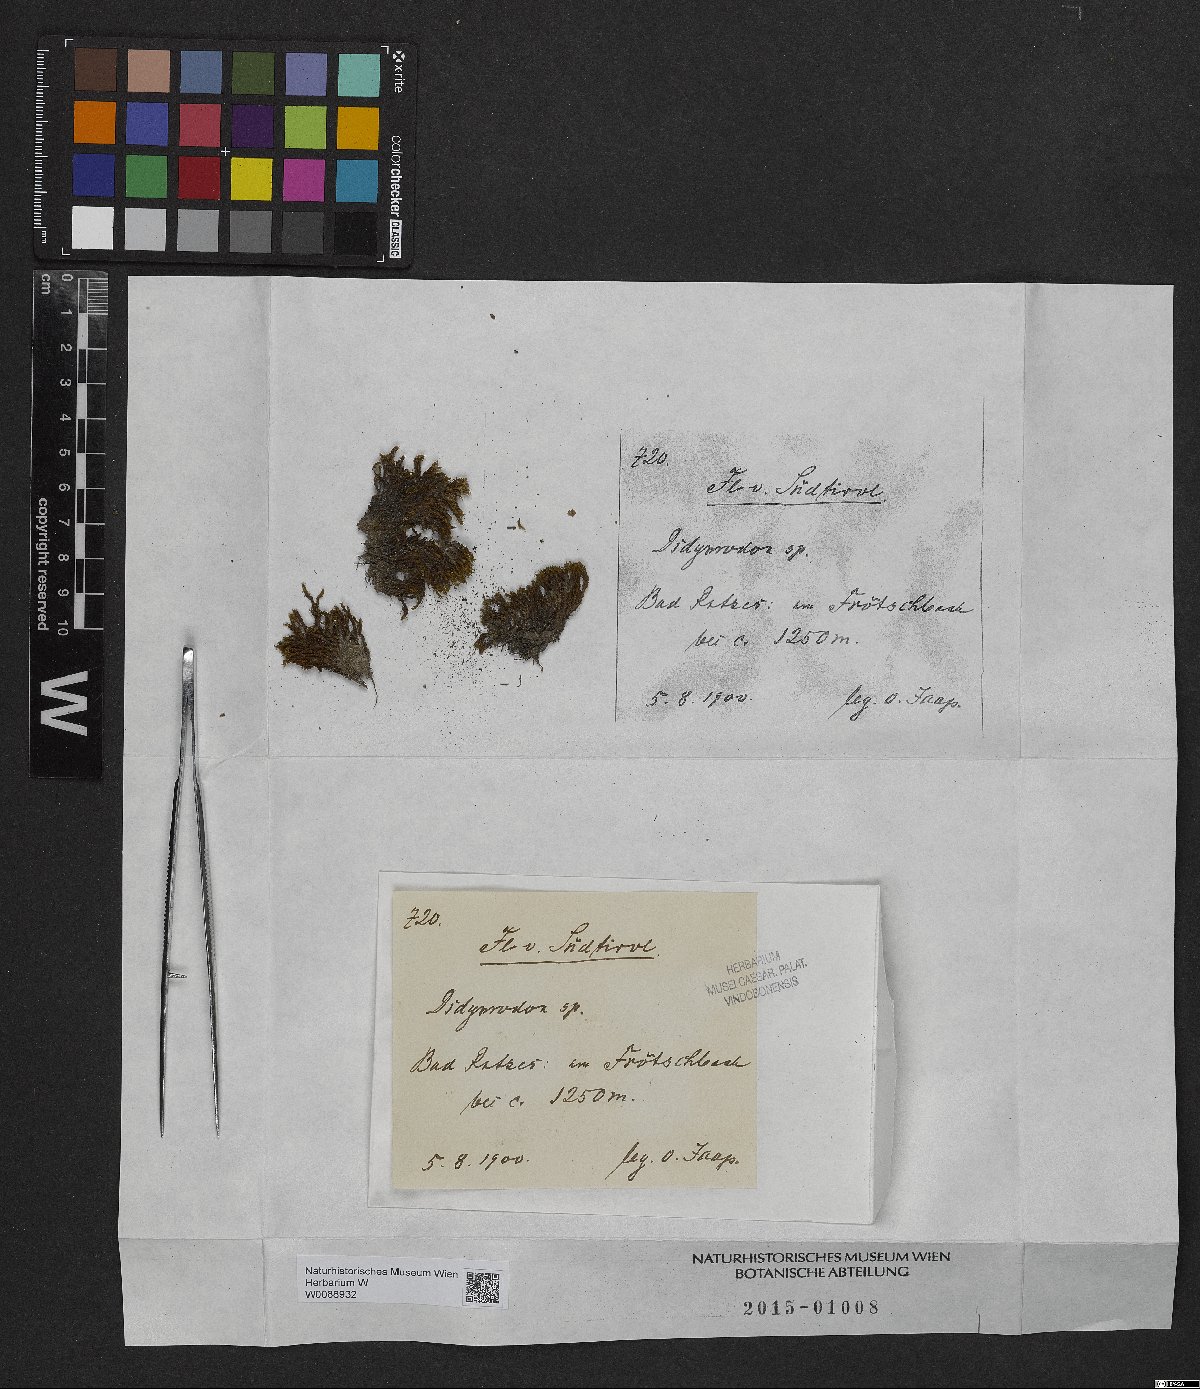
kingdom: Plantae
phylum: Bryophyta
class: Bryopsida
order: Pottiales
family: Pottiaceae
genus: Didymodon
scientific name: Didymodon
